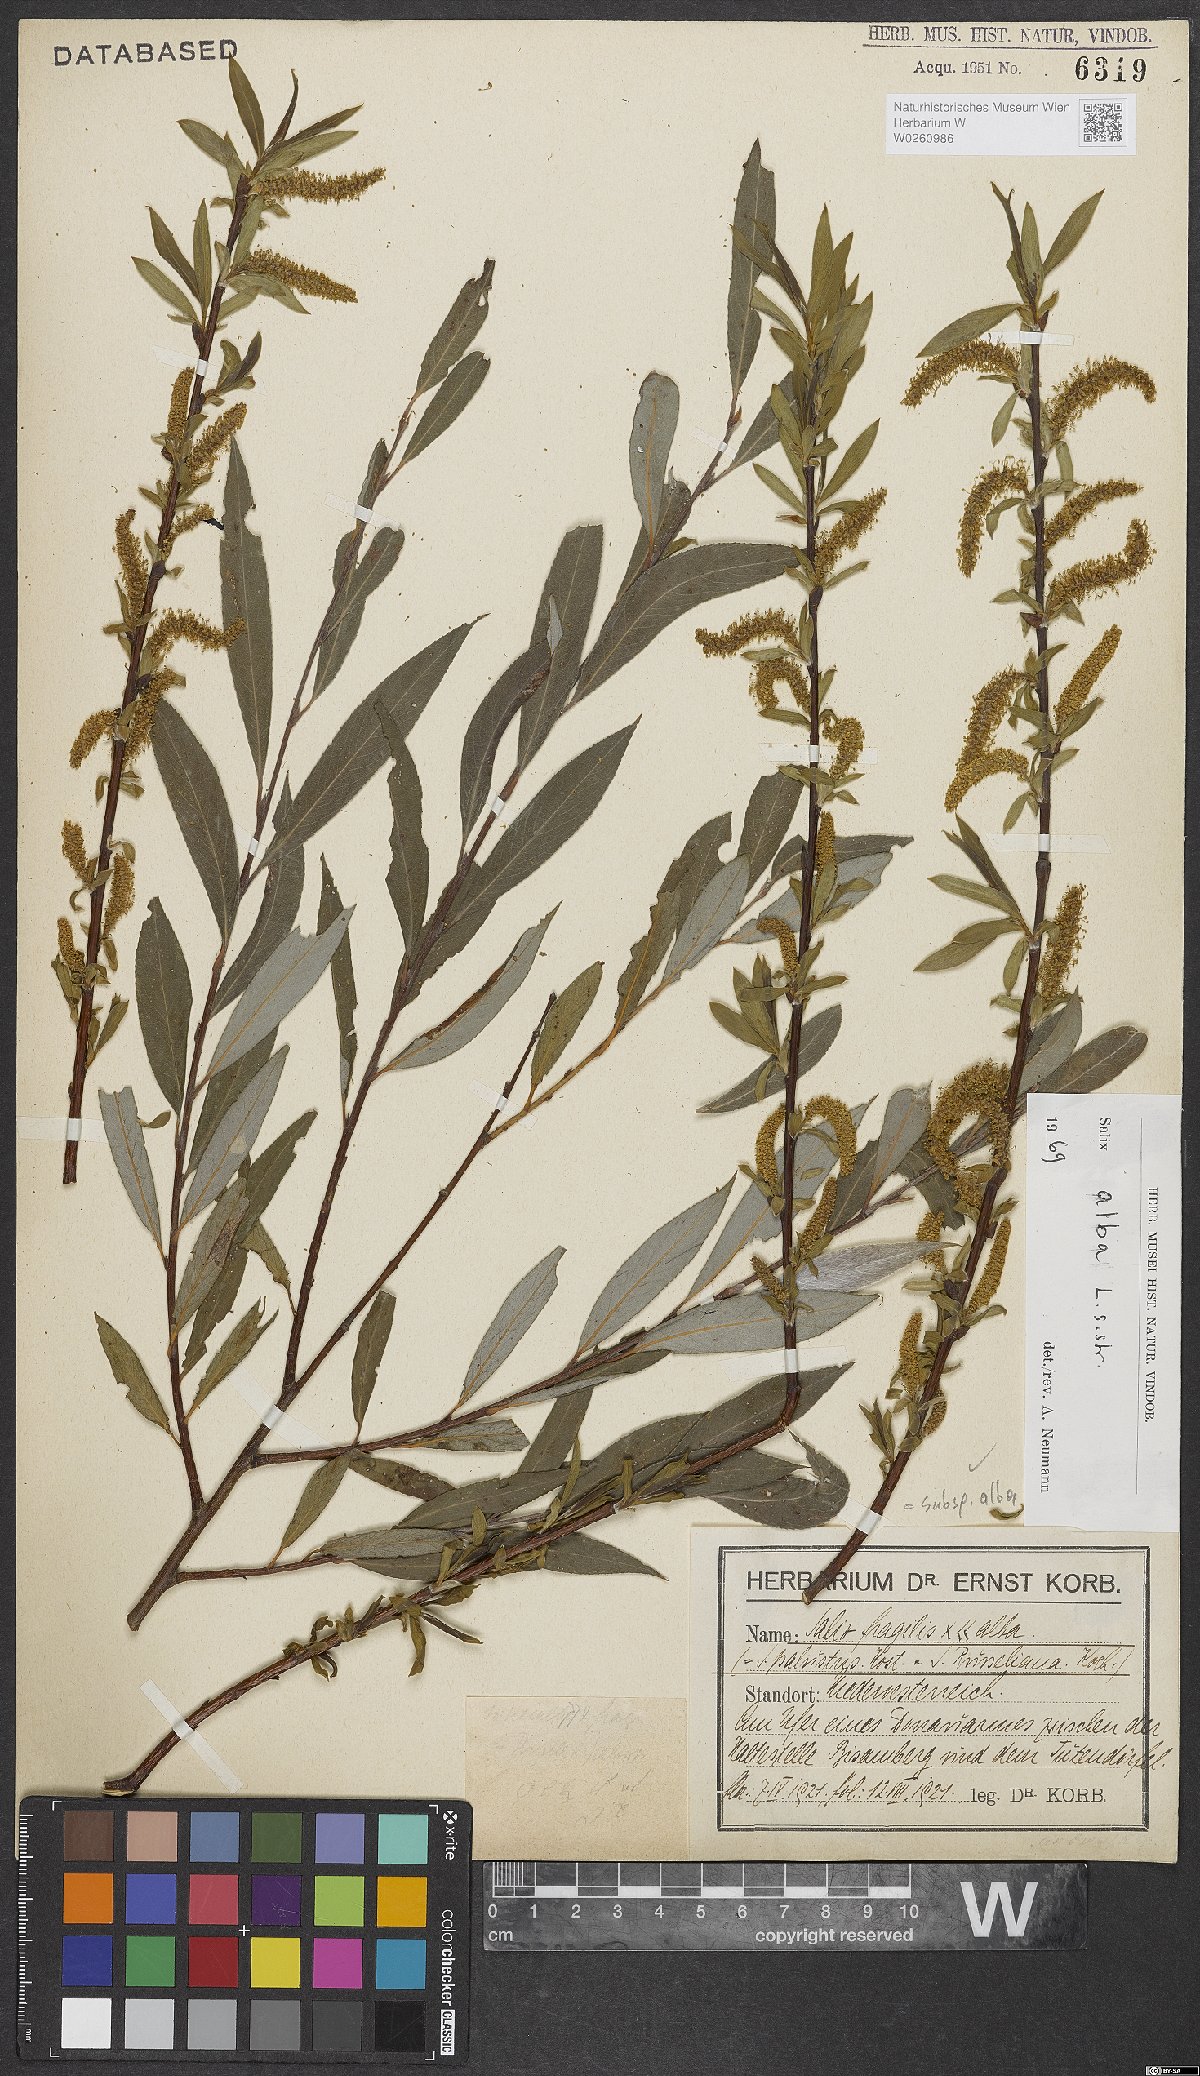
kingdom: Plantae
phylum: Tracheophyta
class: Magnoliopsida
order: Malpighiales
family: Salicaceae
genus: Salix
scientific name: Salix alba
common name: White willow
